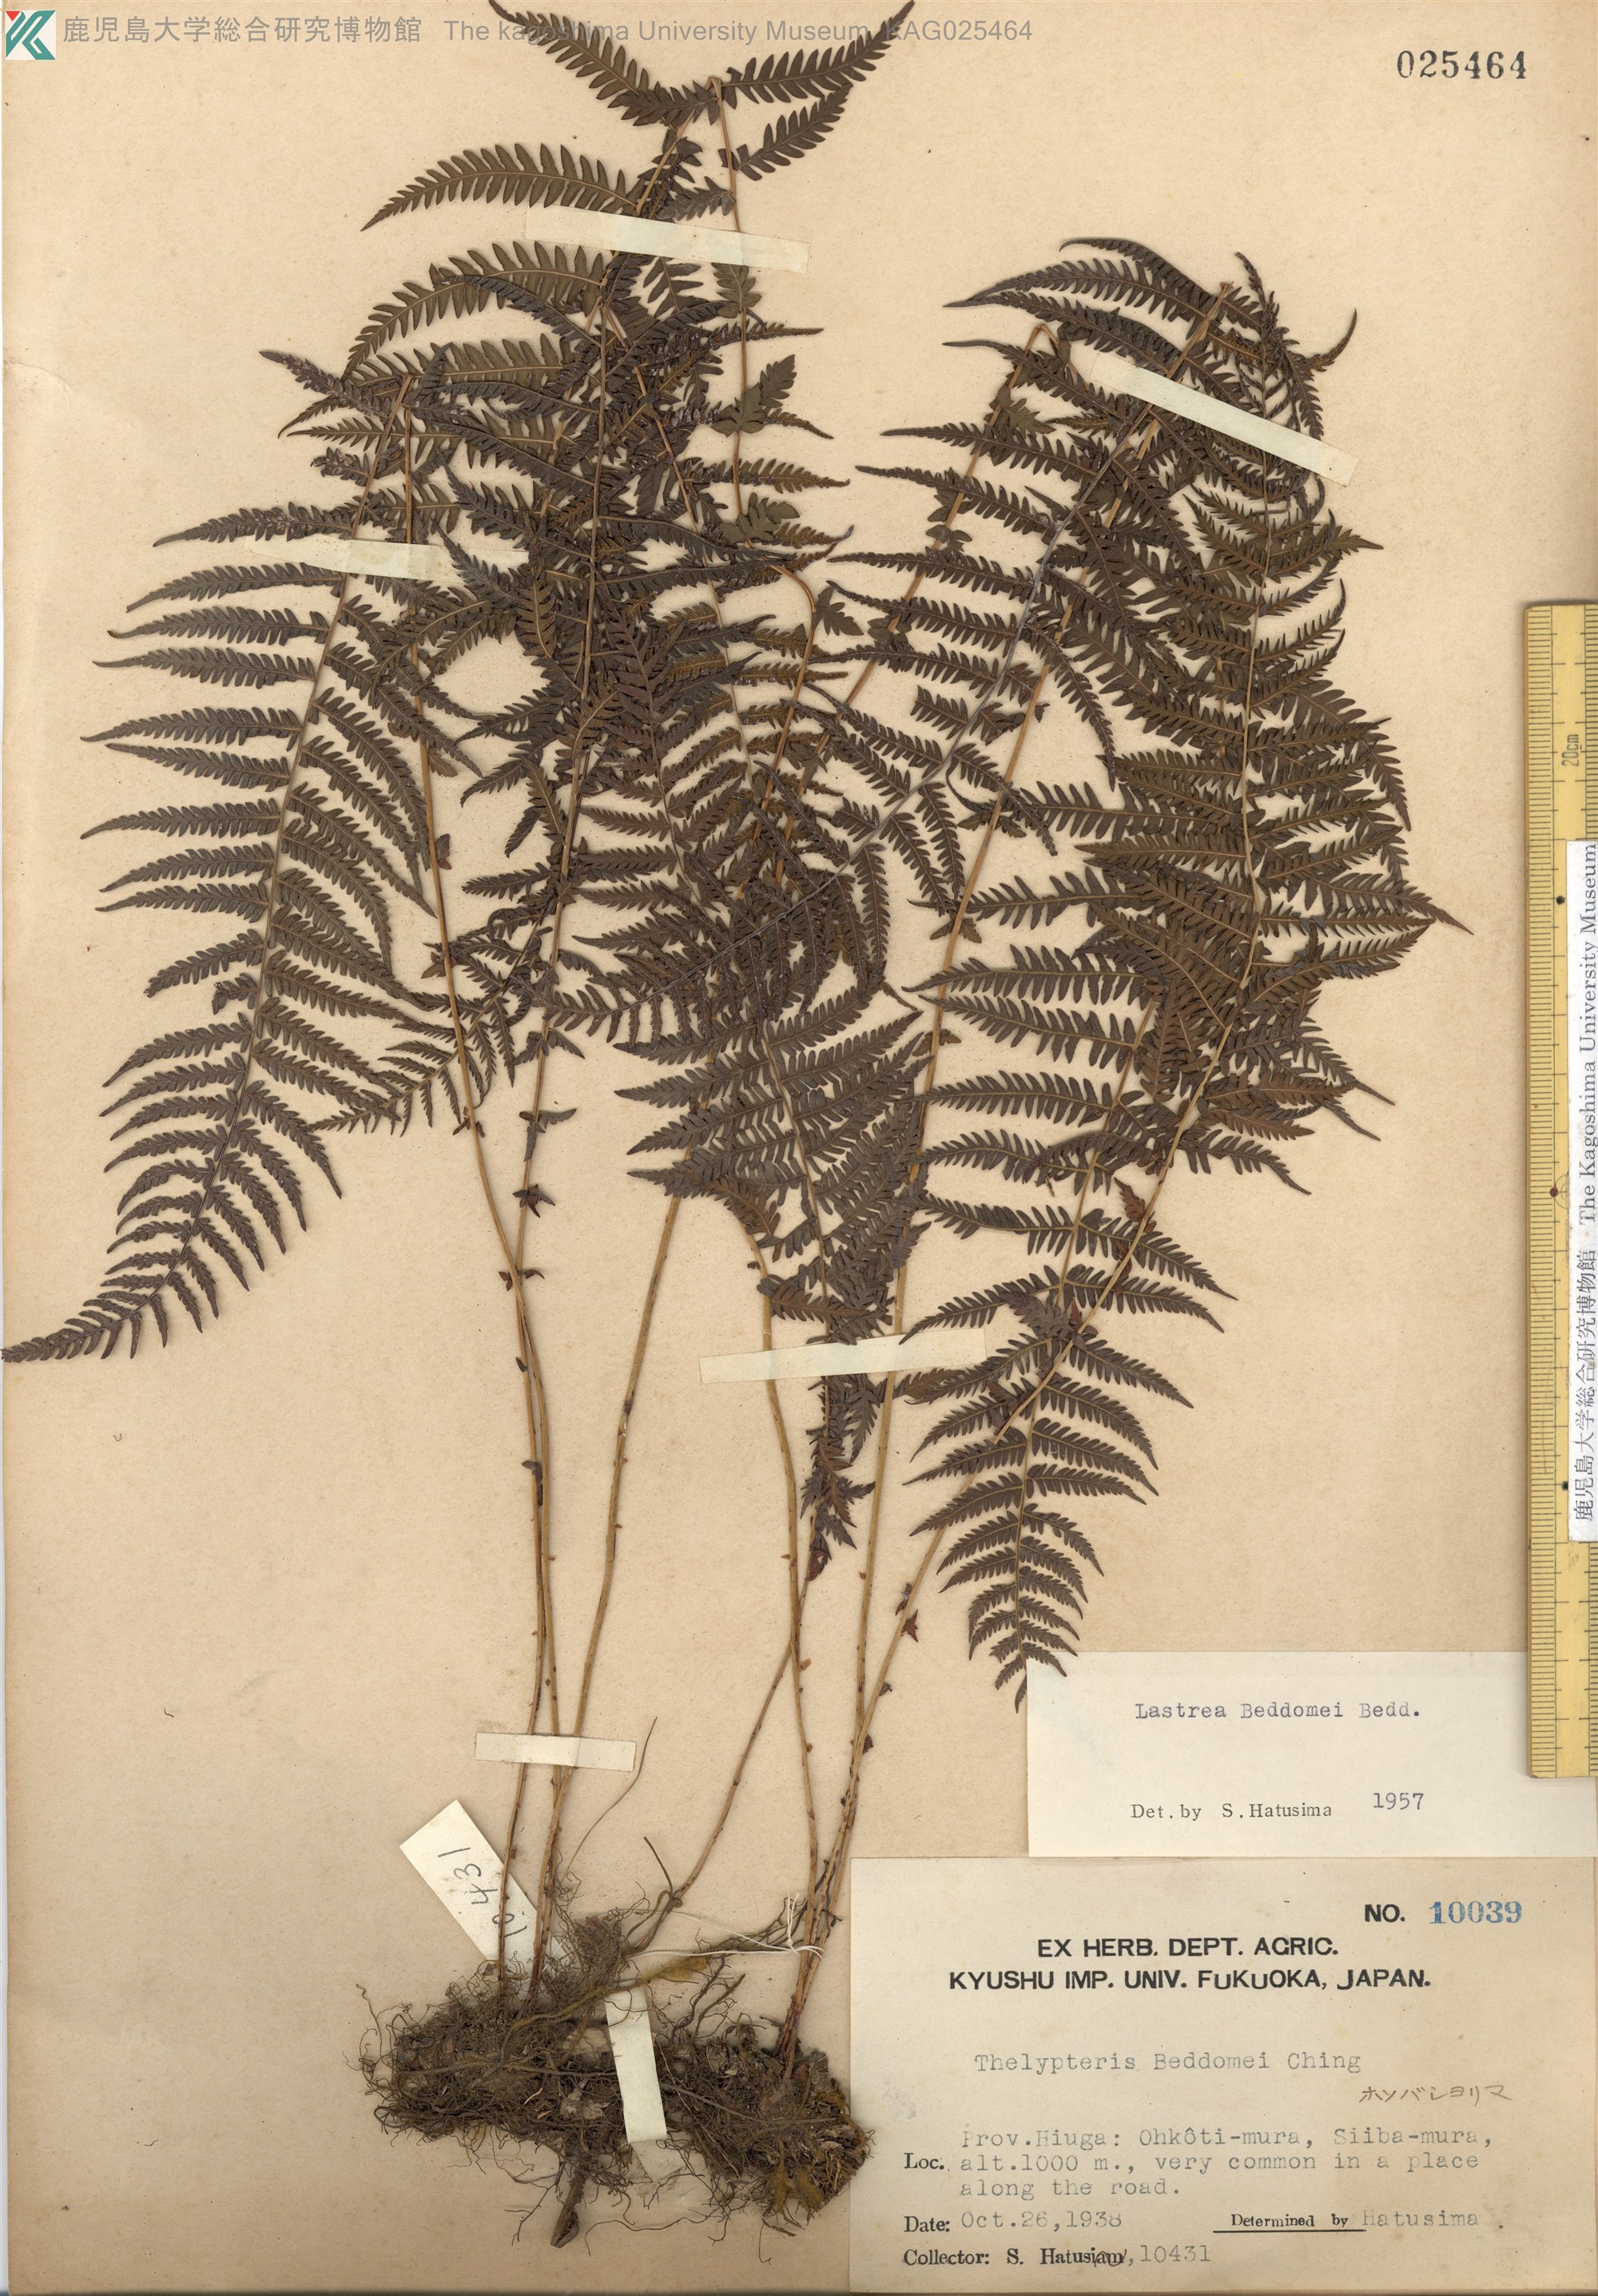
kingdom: Plantae
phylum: Tracheophyta
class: Polypodiopsida
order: Polypodiales
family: Thelypteridaceae
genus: Amauropelta
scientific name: Amauropelta beddomei
